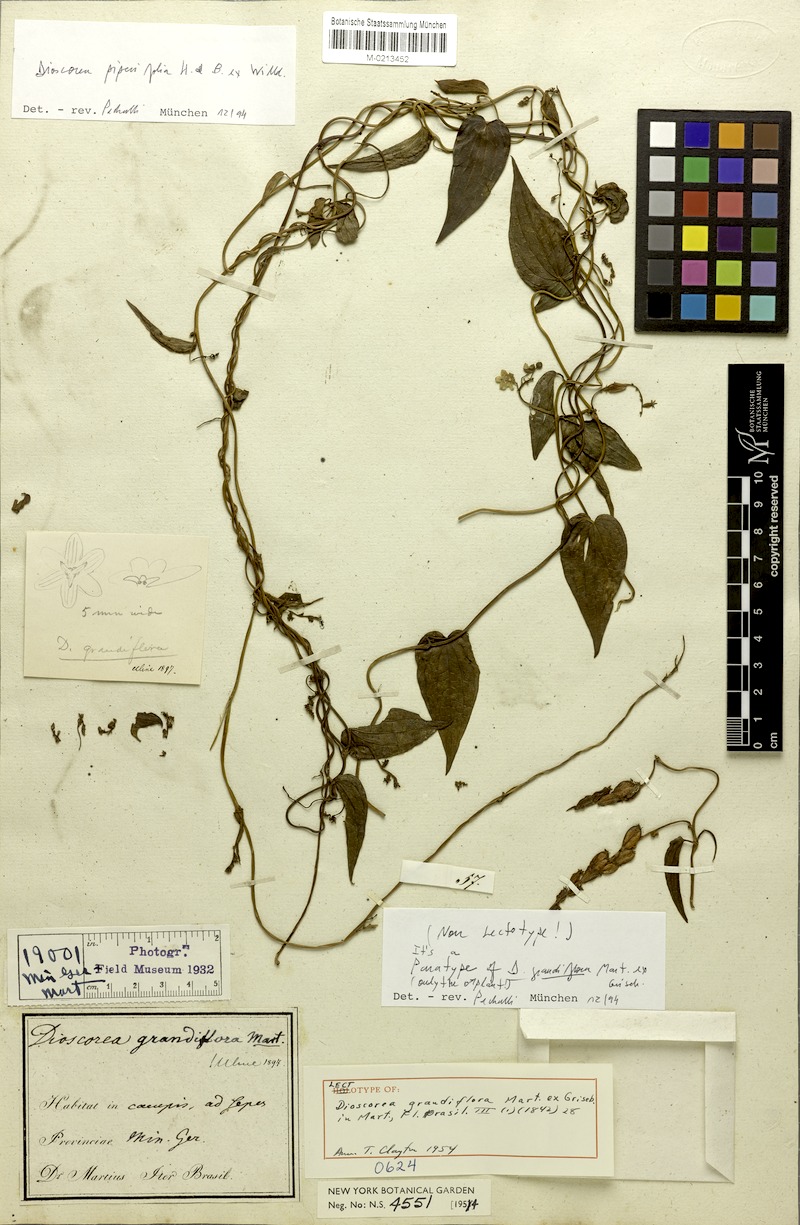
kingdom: Plantae
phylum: Tracheophyta
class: Liliopsida
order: Dioscoreales
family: Dioscoreaceae
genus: Dioscorea
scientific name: Dioscorea grandiflora
